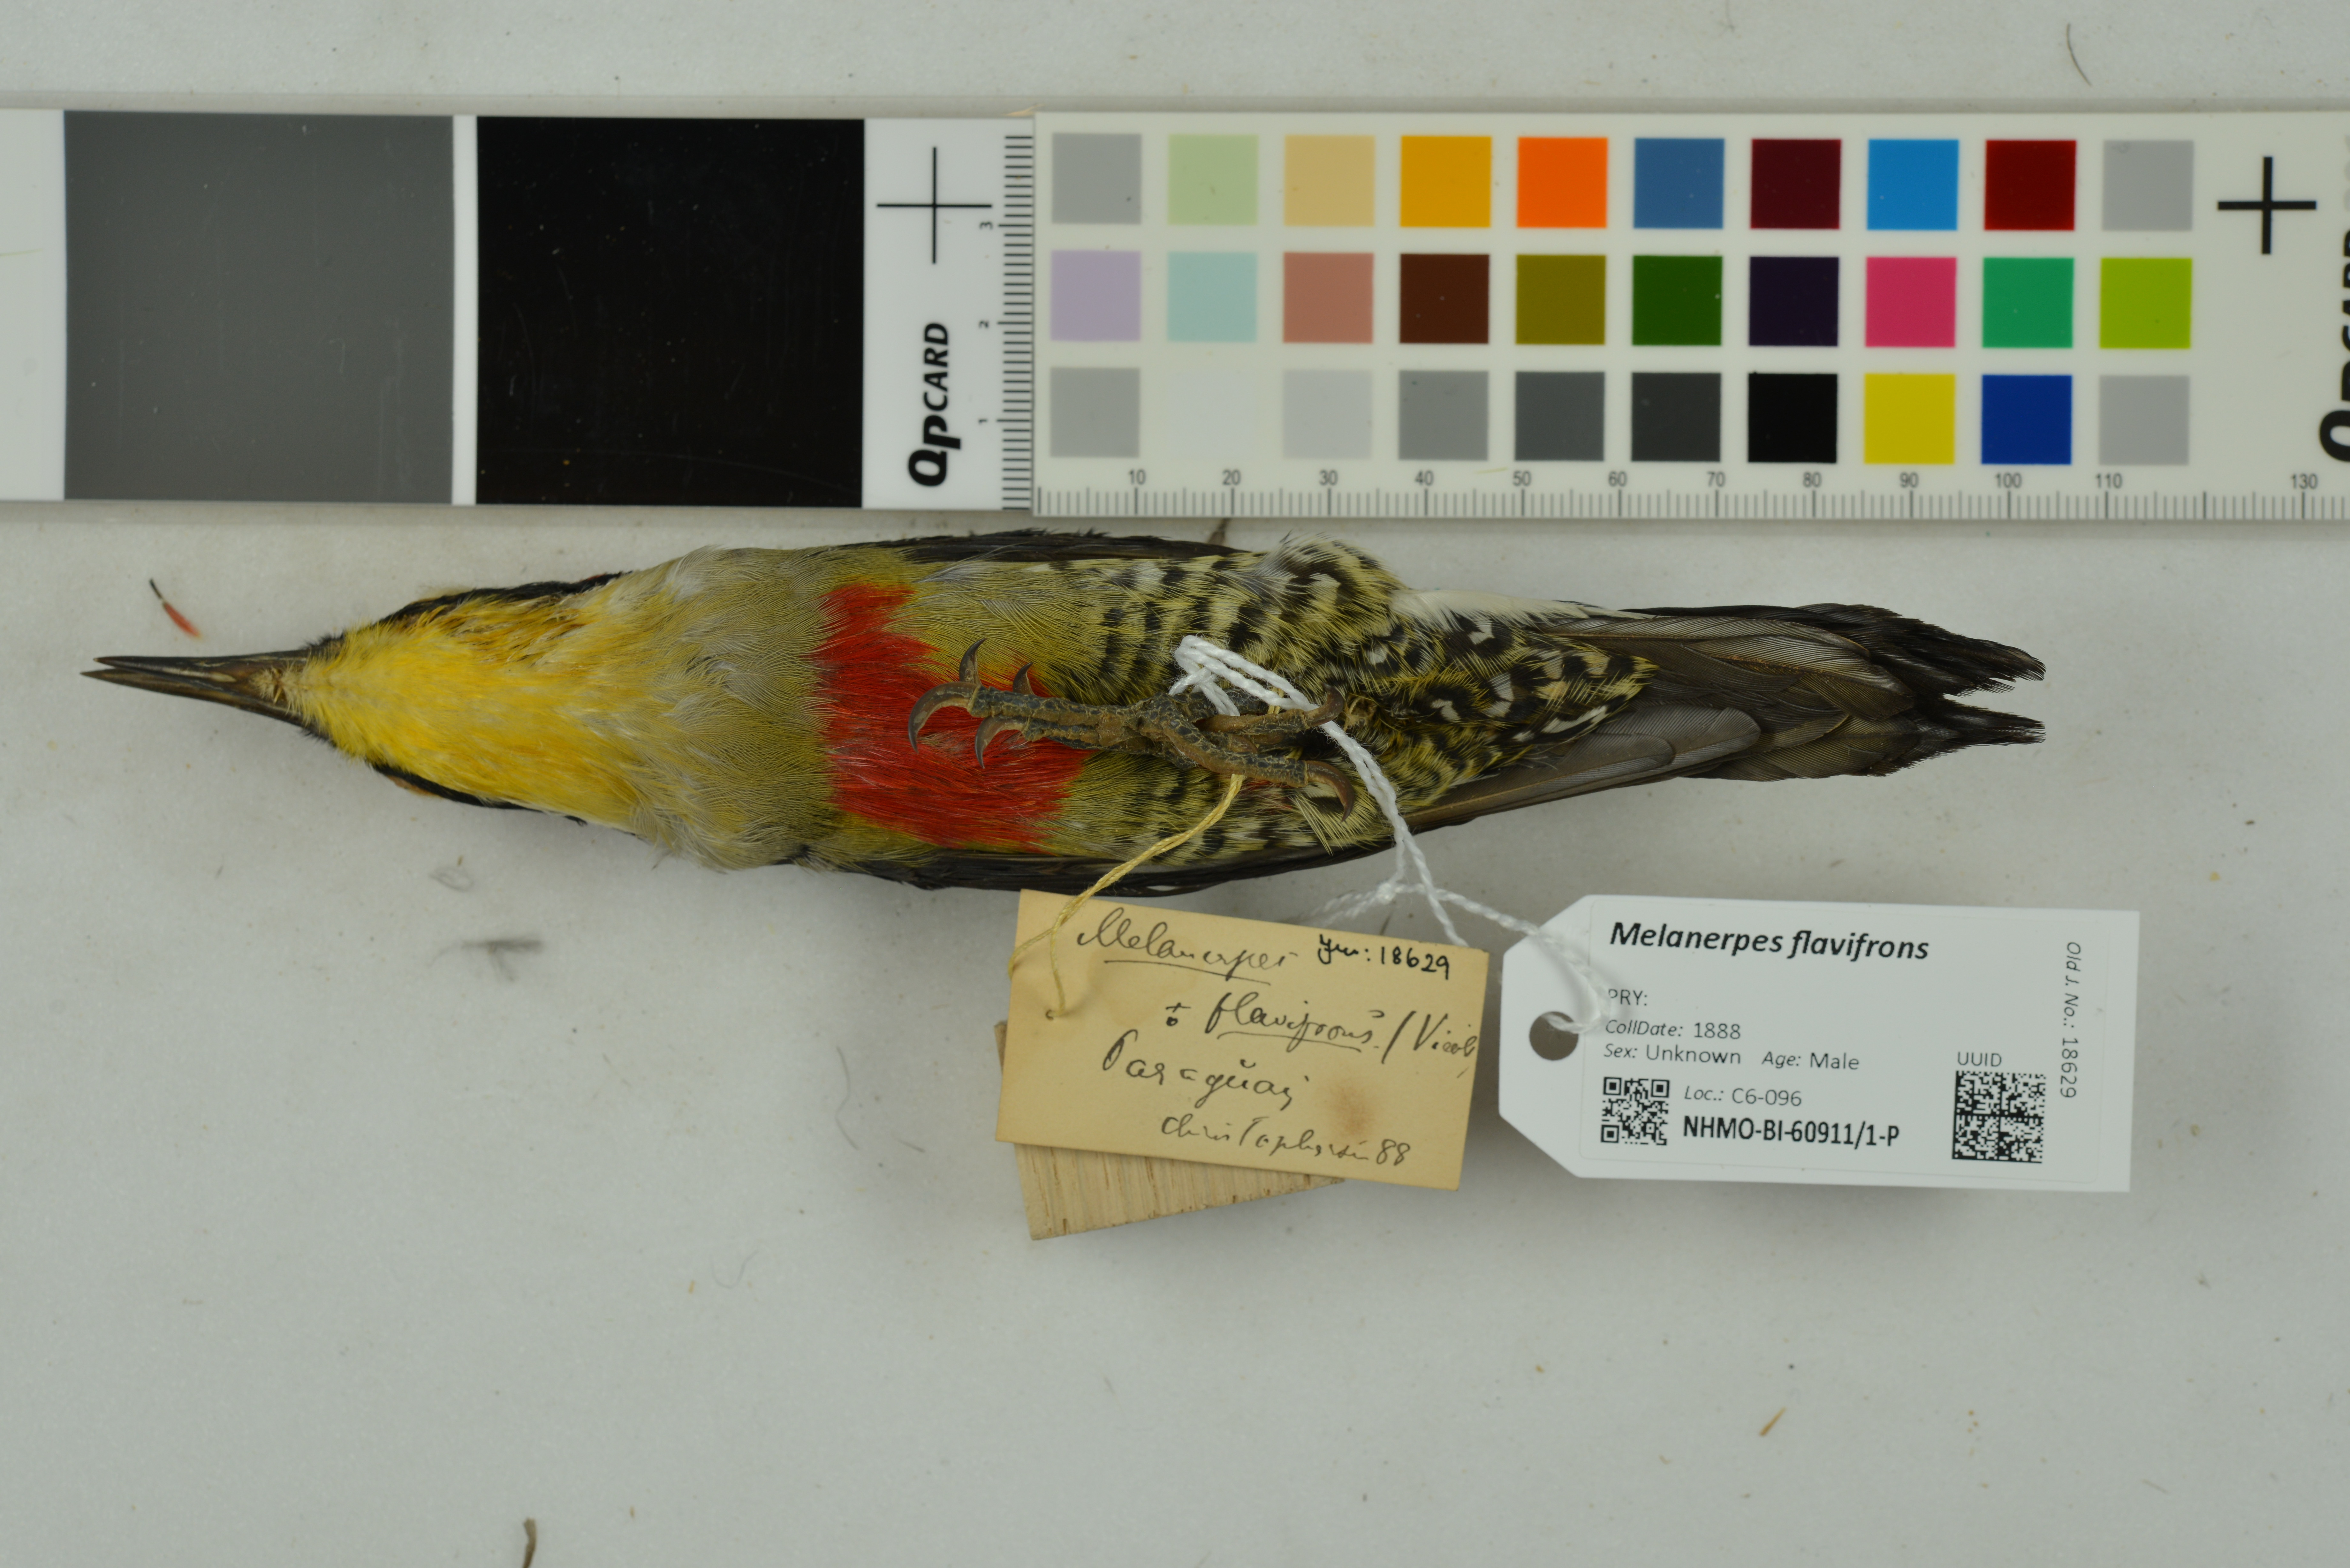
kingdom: Animalia
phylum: Chordata
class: Aves
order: Piciformes
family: Picidae
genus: Melanerpes
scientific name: Melanerpes flavifrons
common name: Yellow-fronted woodpecker
